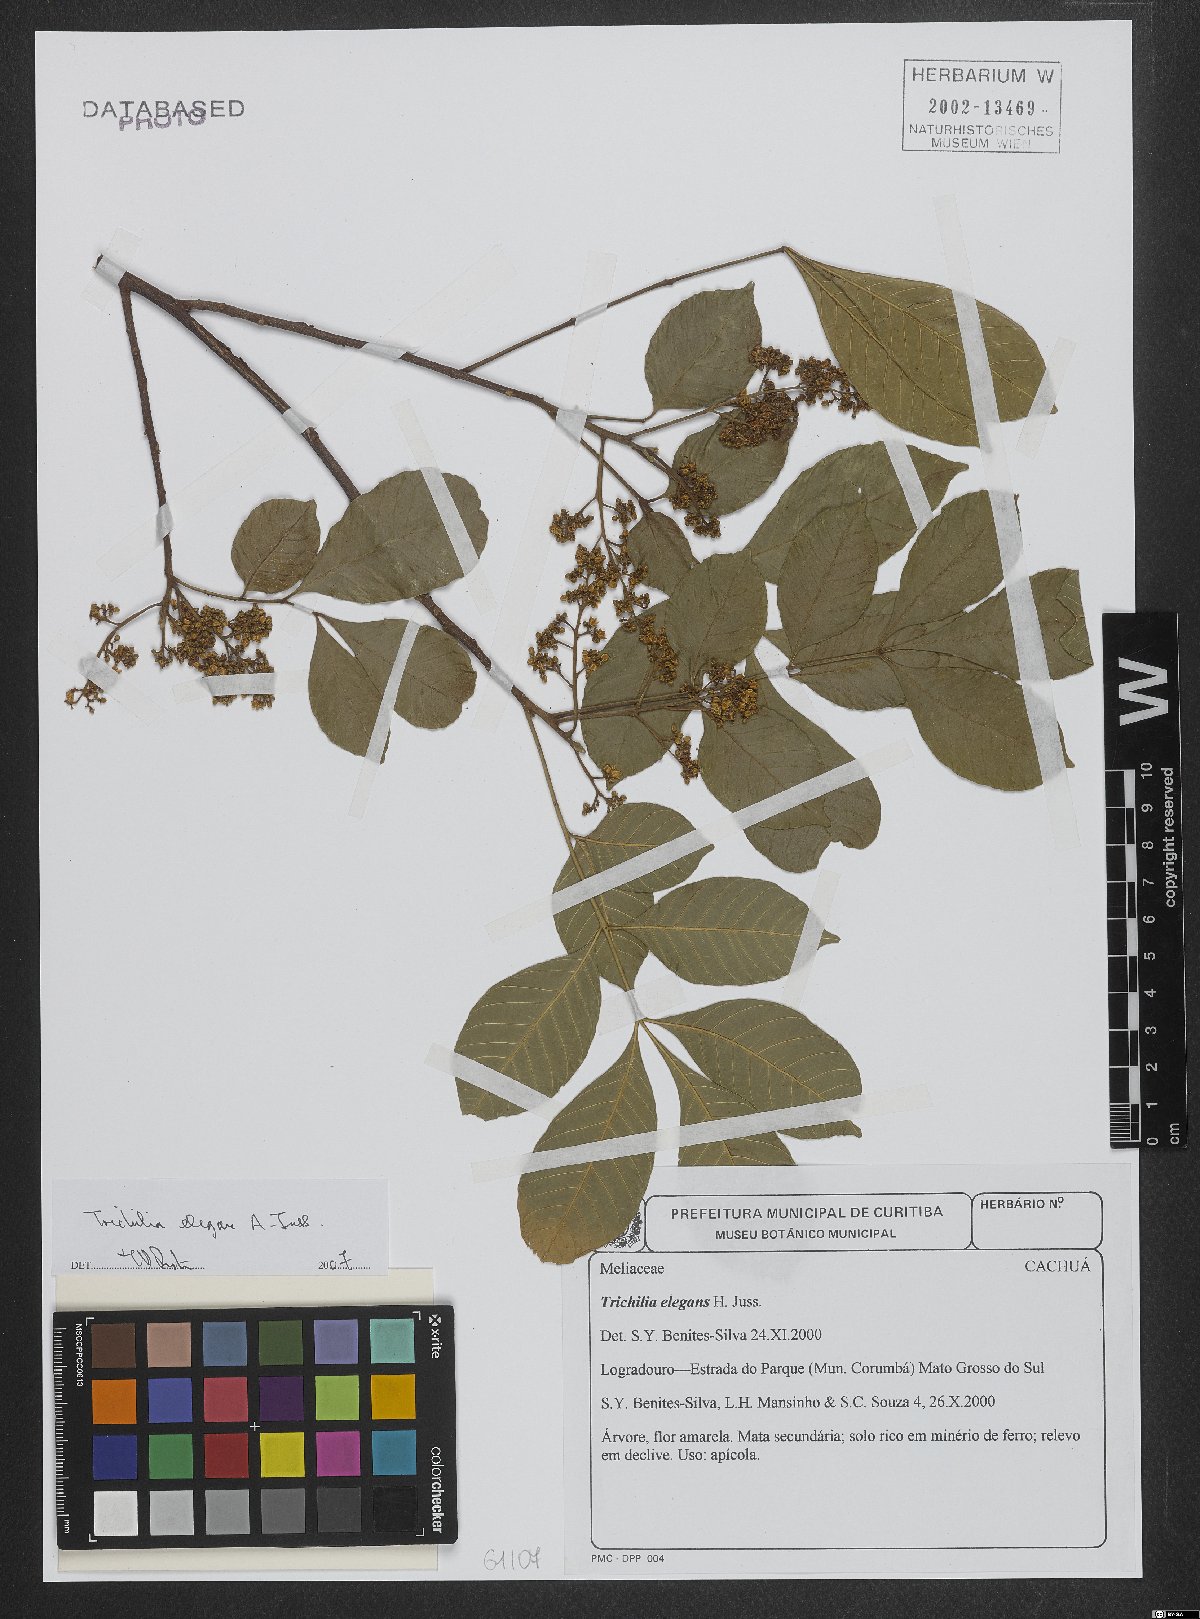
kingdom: Plantae
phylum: Tracheophyta
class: Magnoliopsida
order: Sapindales
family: Meliaceae
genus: Trichilia
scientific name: Trichilia elegans
